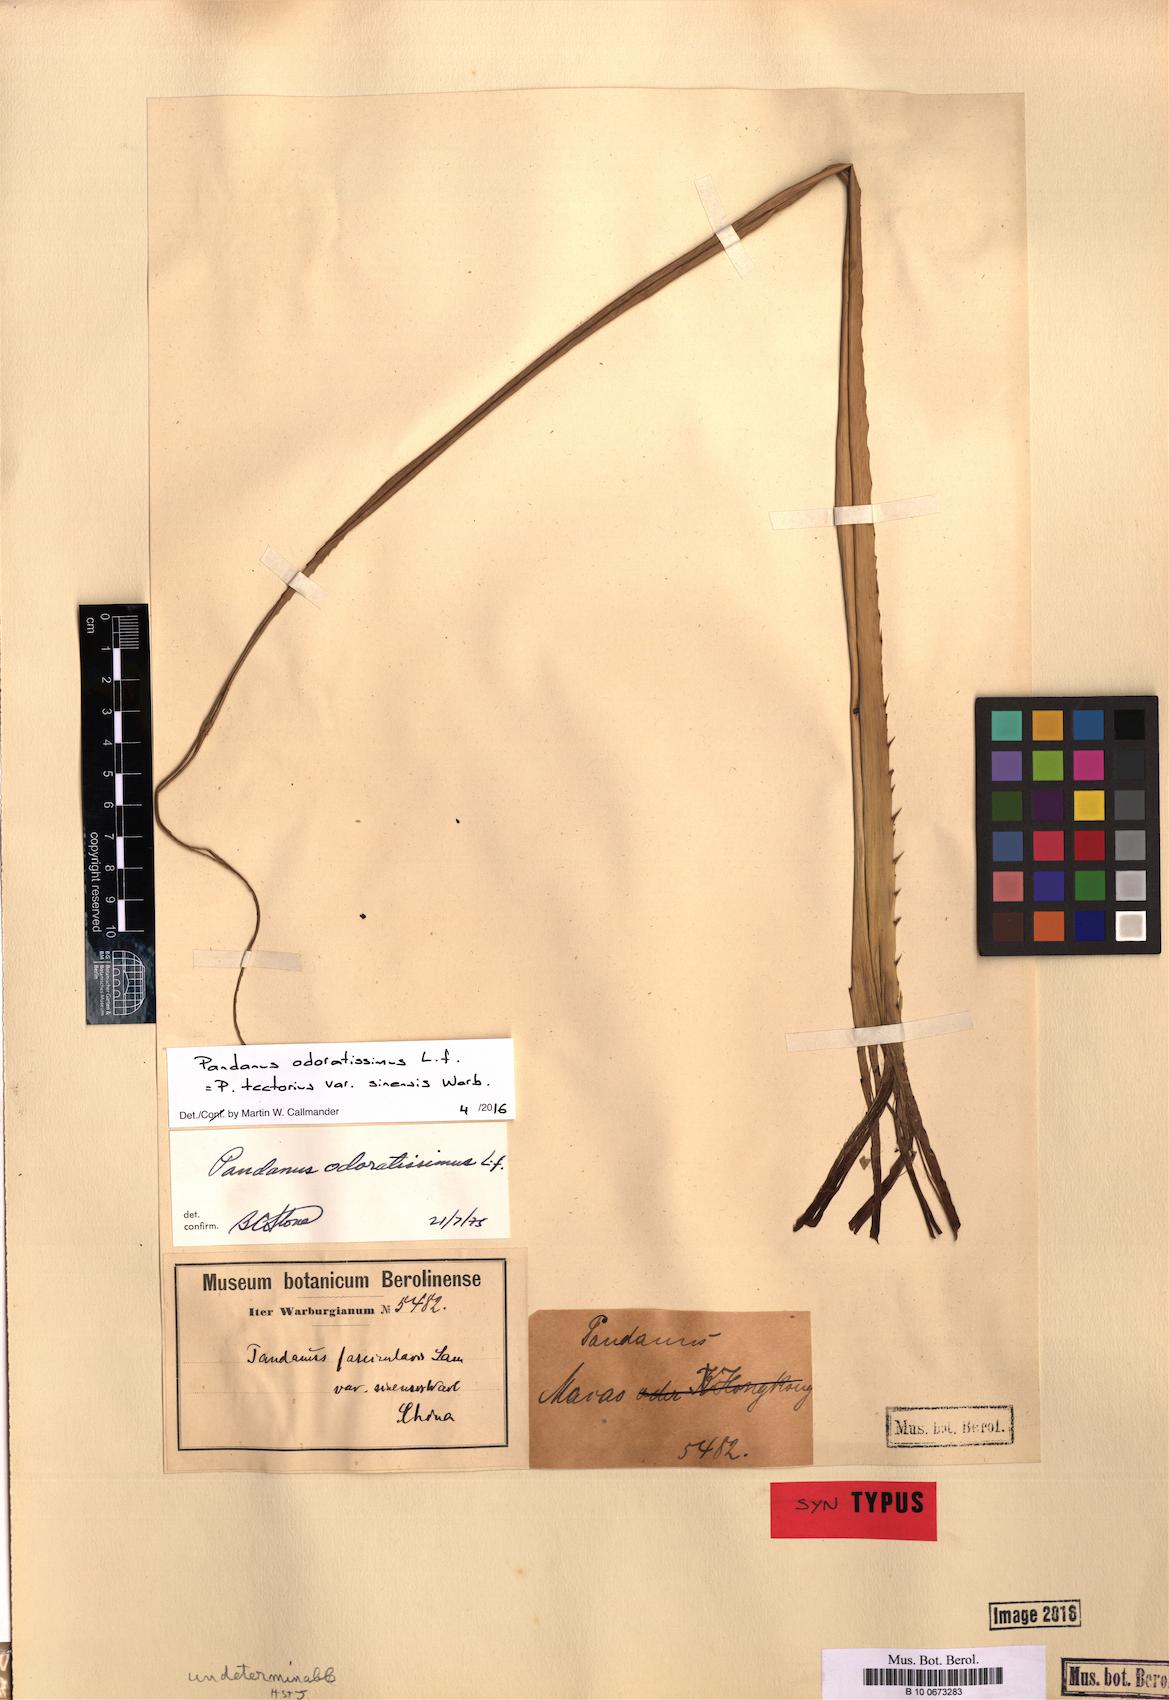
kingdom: Plantae
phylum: Tracheophyta
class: Liliopsida
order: Pandanales
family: Pandanaceae
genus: Pandanus
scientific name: Pandanus odorifer
